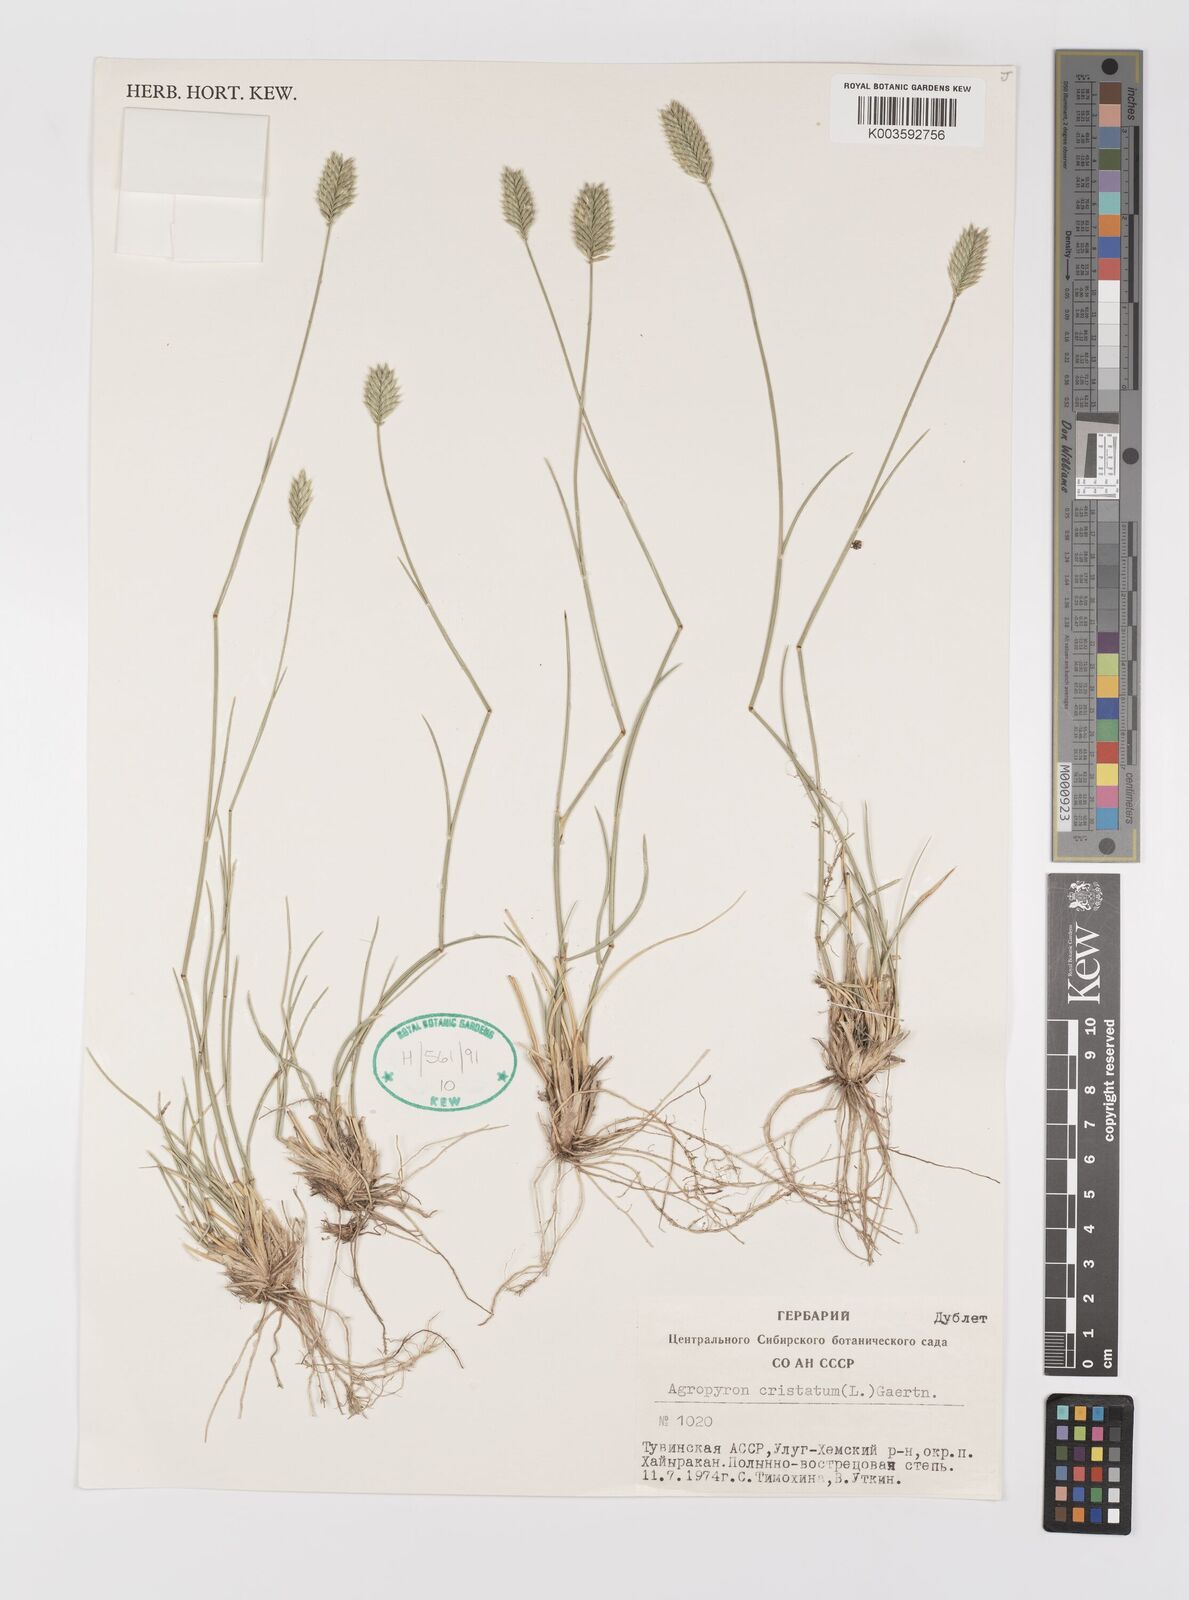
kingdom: Plantae
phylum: Tracheophyta
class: Liliopsida
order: Poales
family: Poaceae
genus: Agropyron
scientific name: Agropyron cristatum
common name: Crested wheatgrass
